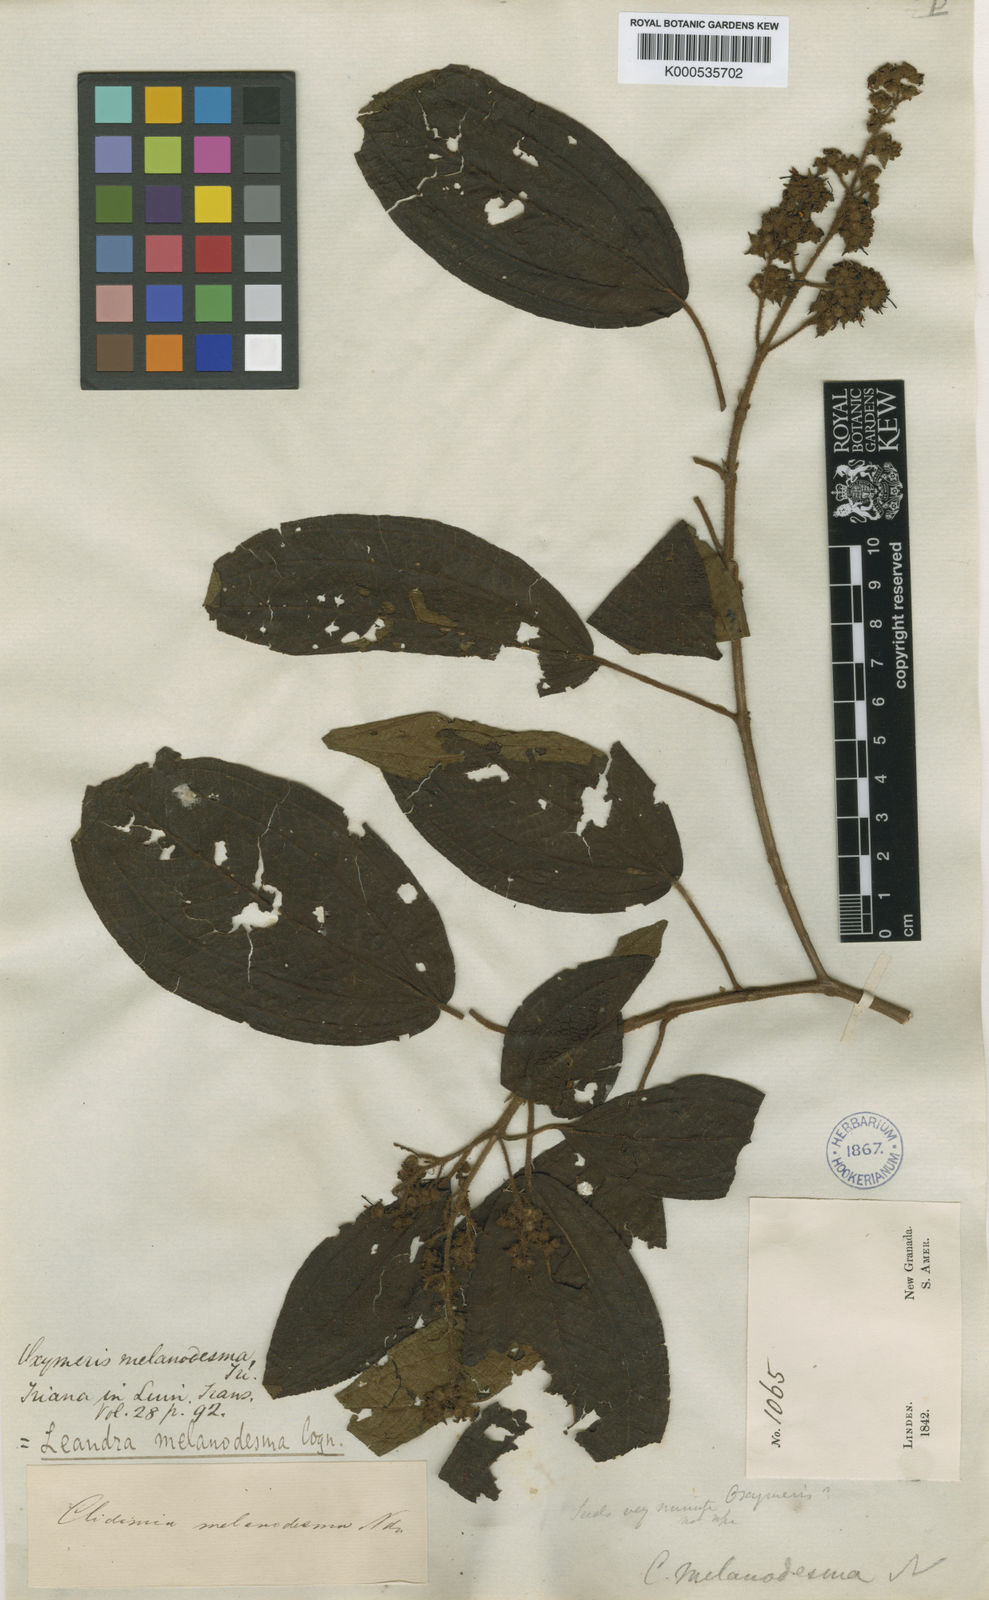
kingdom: Plantae
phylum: Tracheophyta
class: Magnoliopsida
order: Myrtales
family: Melastomataceae
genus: Miconia
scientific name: Miconia melanodesma
